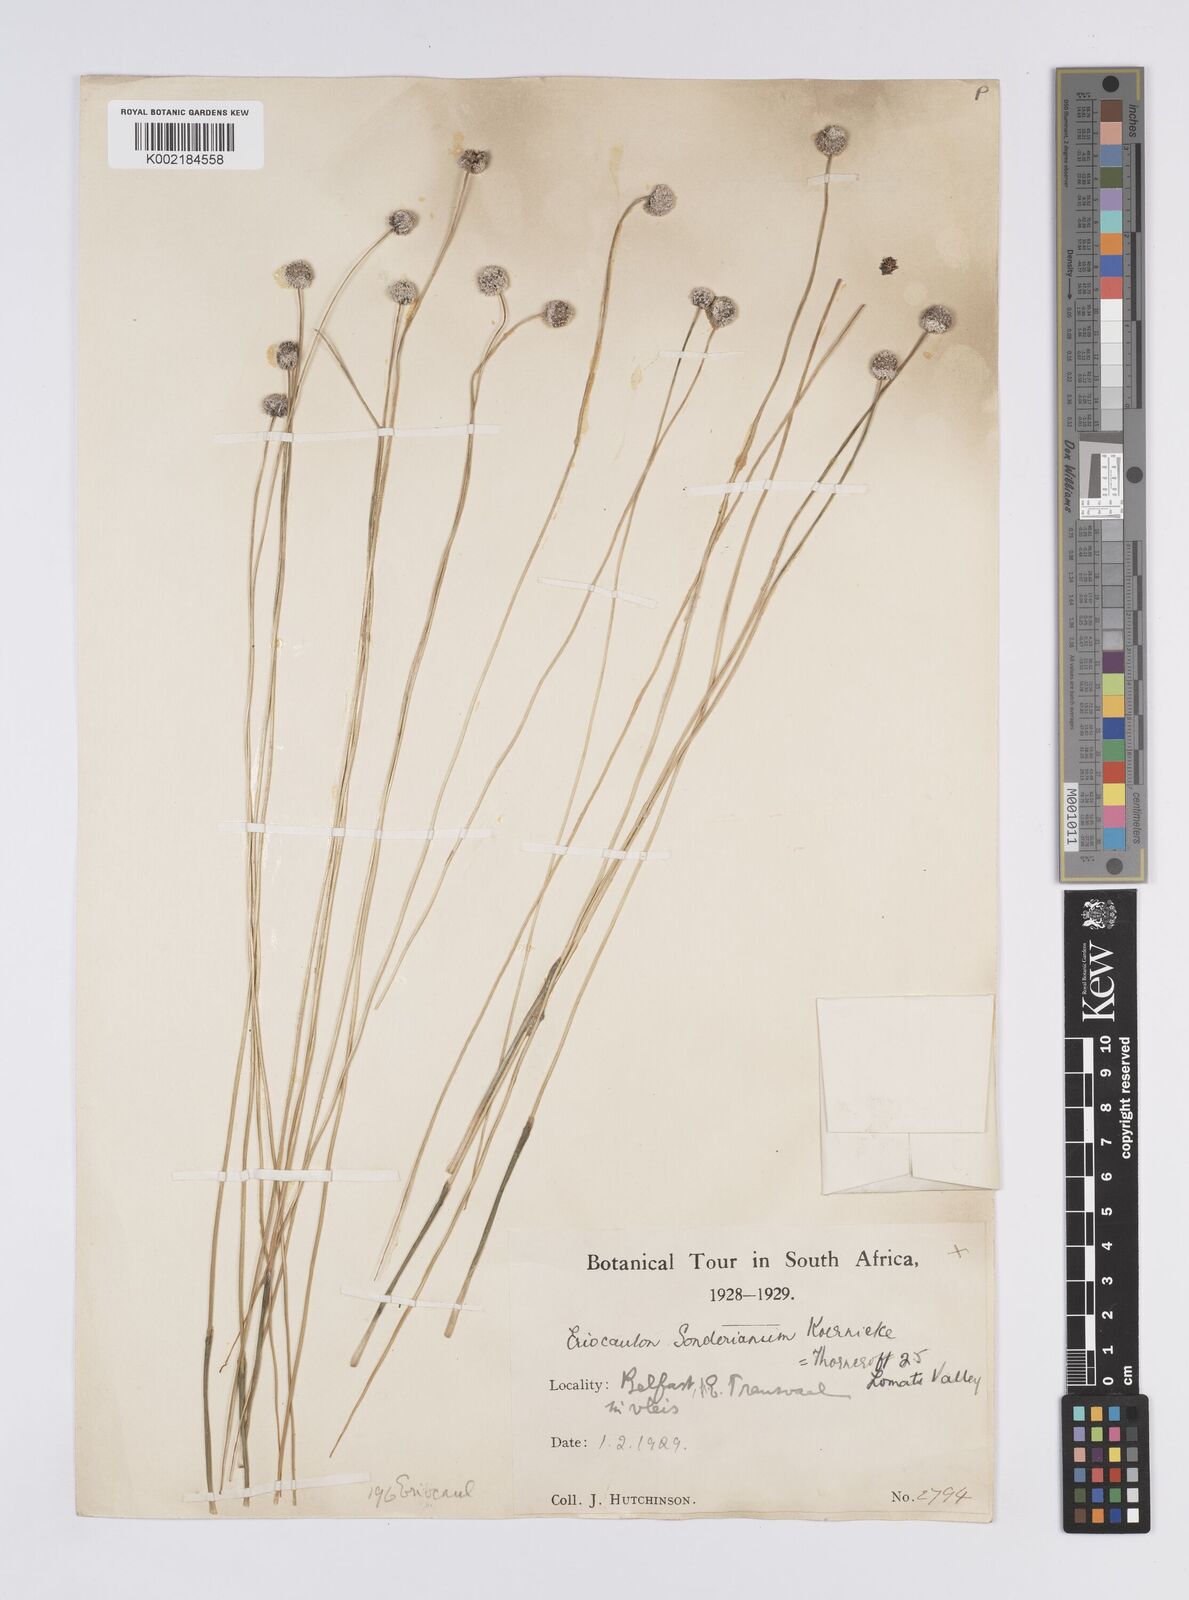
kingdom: Plantae
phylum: Tracheophyta
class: Liliopsida
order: Poales
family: Eriocaulaceae
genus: Eriocaulon
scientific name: Eriocaulon sonderianum
